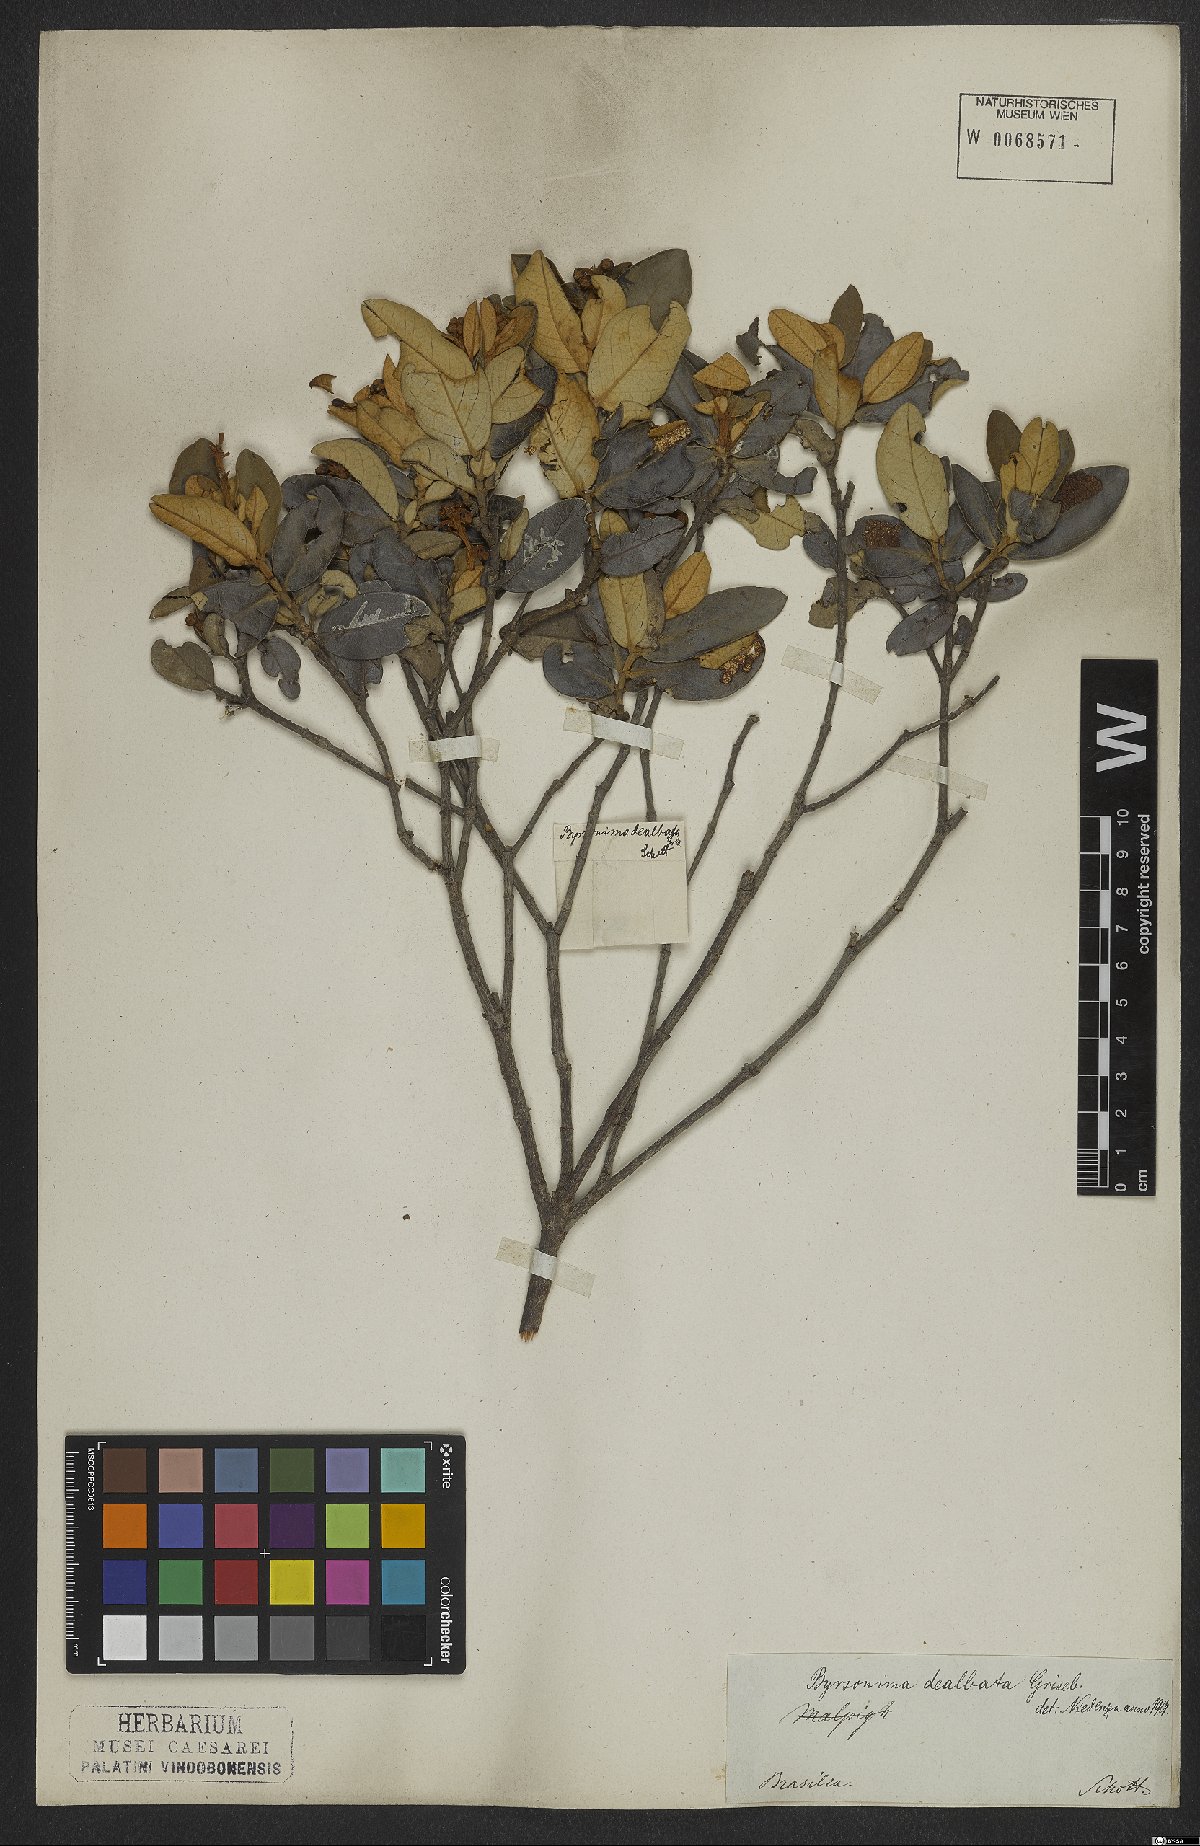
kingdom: Plantae
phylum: Tracheophyta
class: Magnoliopsida
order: Malpighiales
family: Malpighiaceae
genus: Byrsonima
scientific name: Byrsonima dealbata
